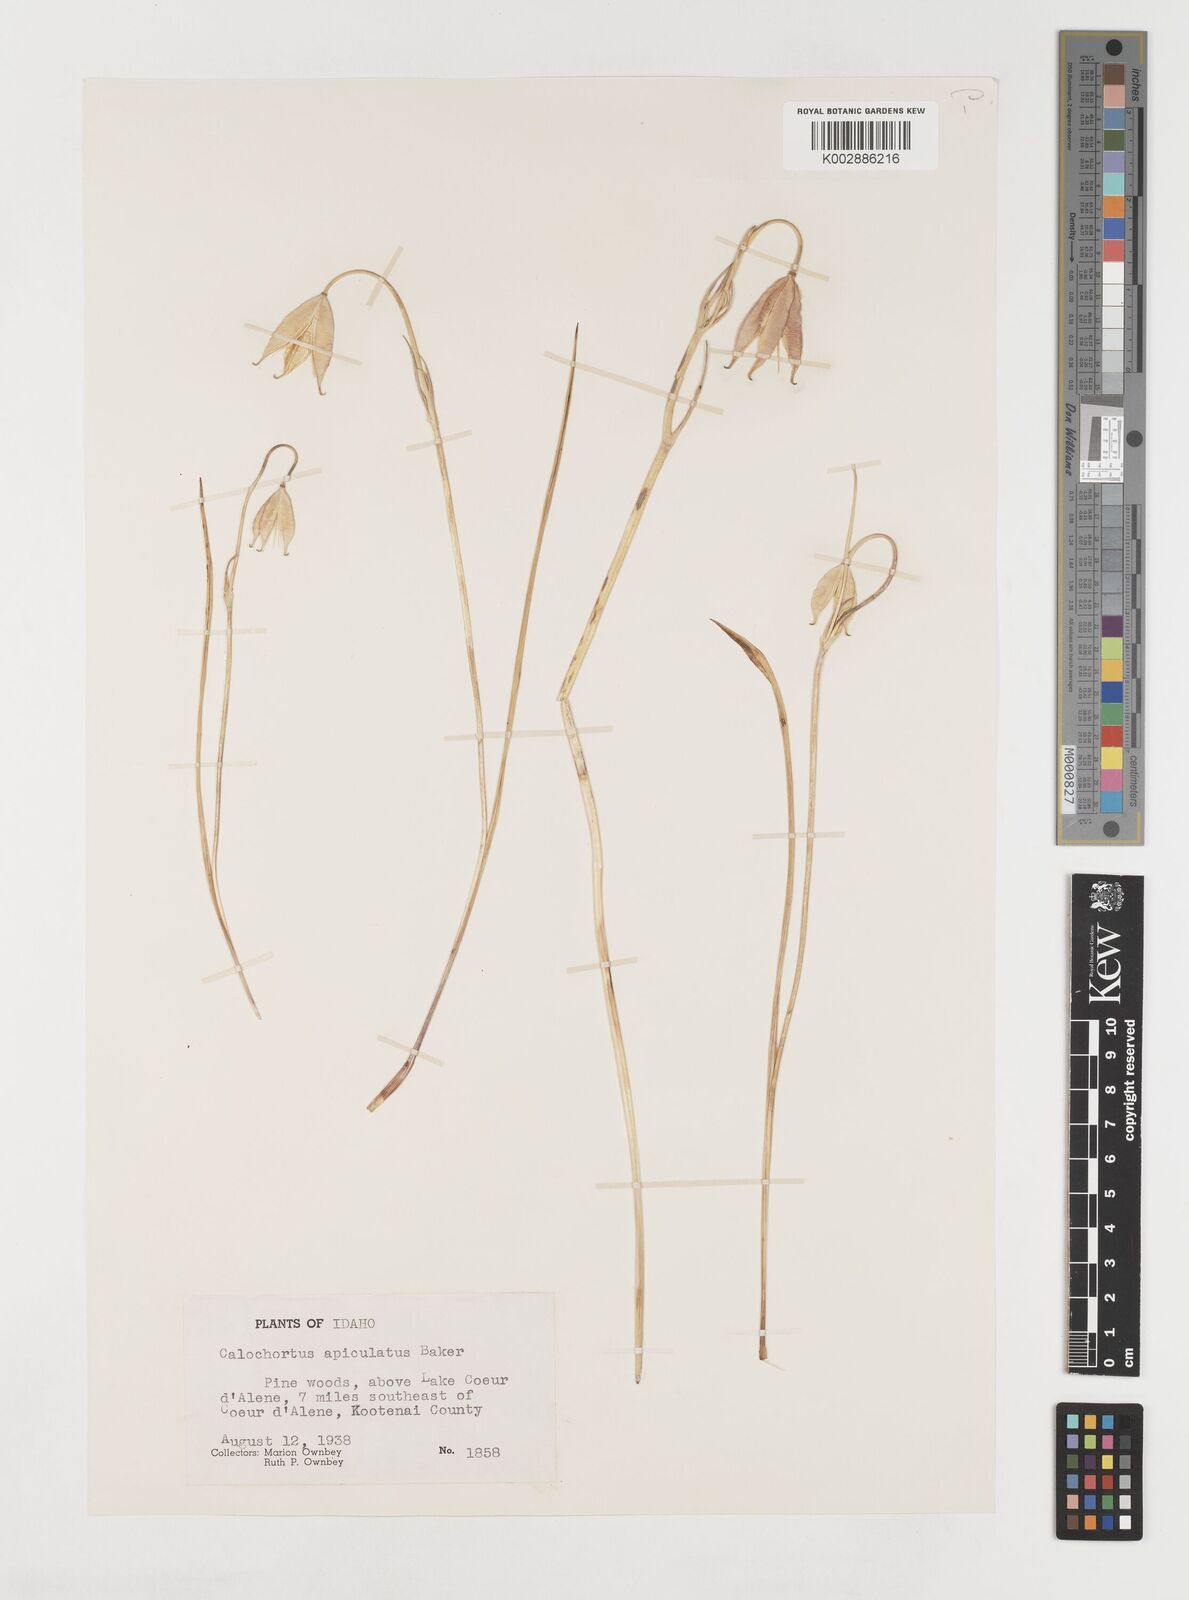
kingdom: Plantae
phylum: Tracheophyta
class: Liliopsida
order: Liliales
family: Liliaceae
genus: Calochortus
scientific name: Calochortus apiculatus
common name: Baker's mariposa lily
